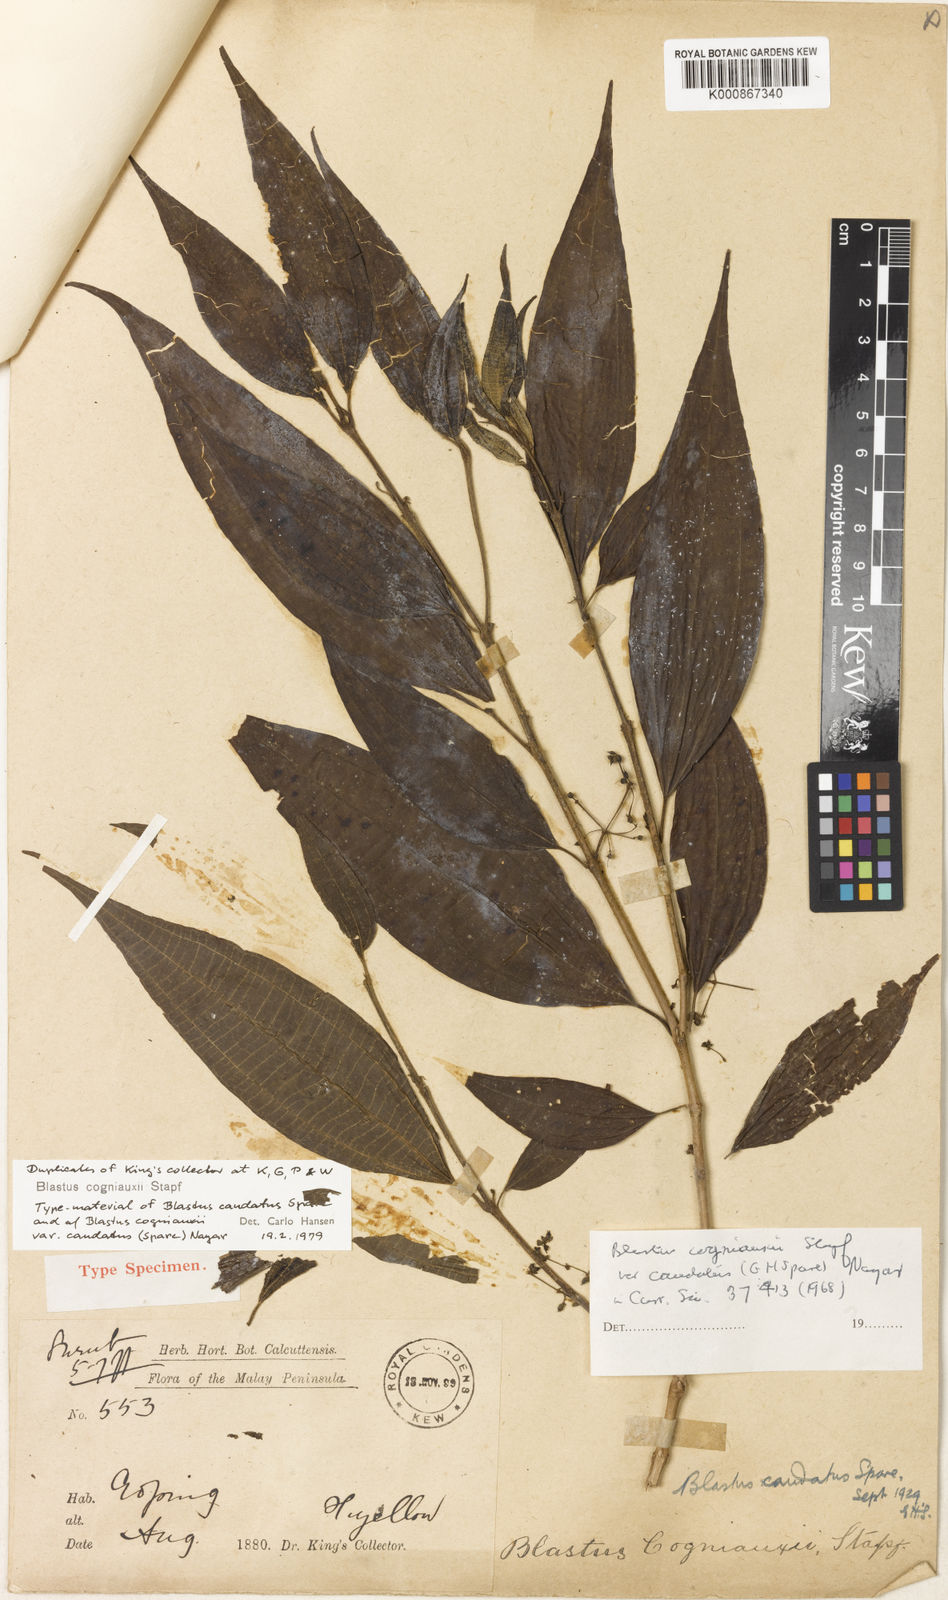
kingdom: Plantae
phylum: Tracheophyta
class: Magnoliopsida
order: Myrtales
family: Melastomataceae
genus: Blastus
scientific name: Blastus borneensis
